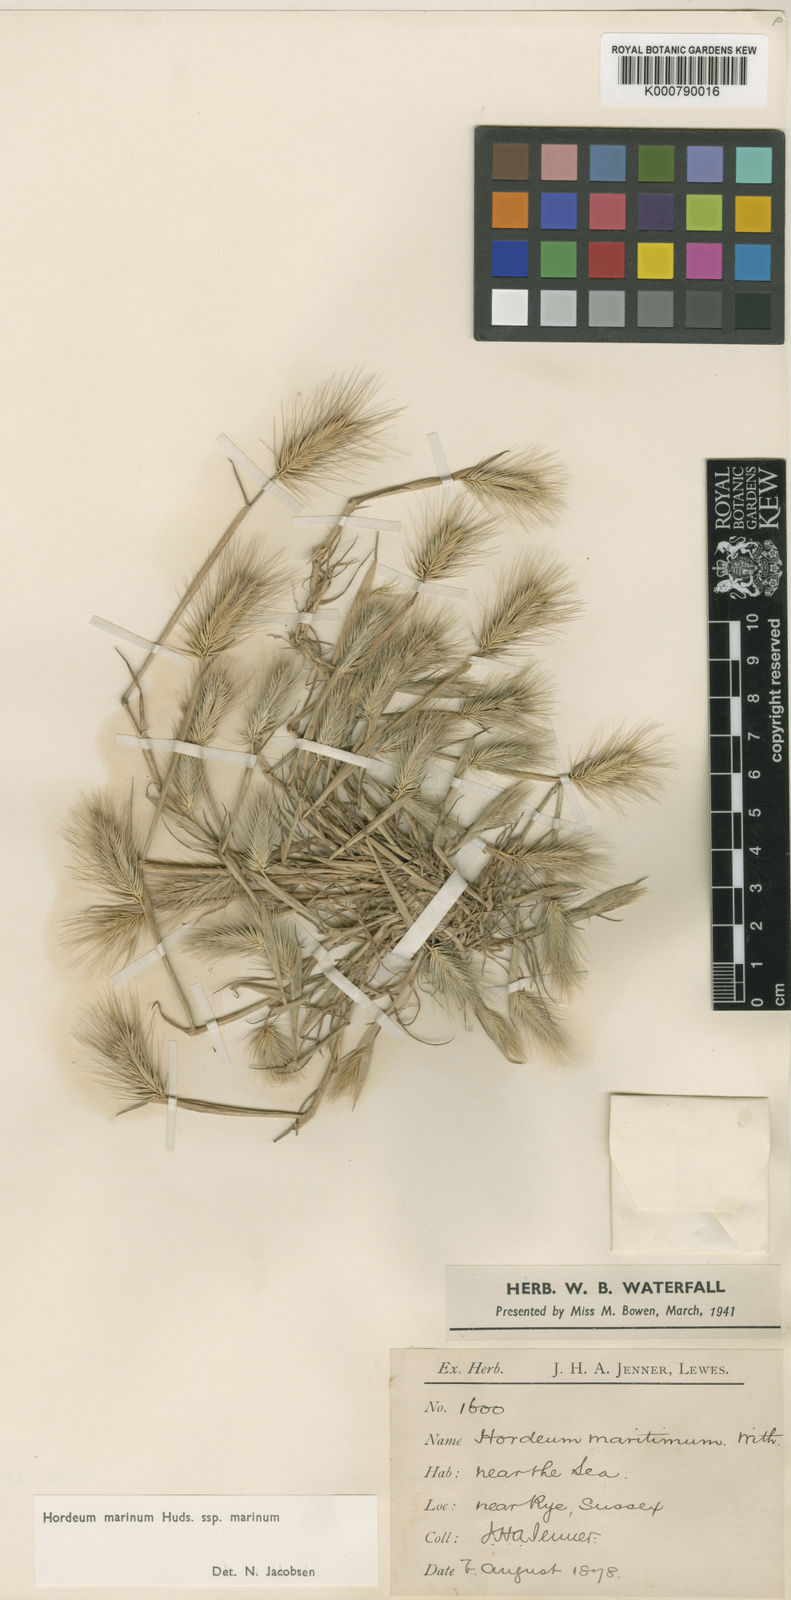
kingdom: Plantae
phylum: Tracheophyta
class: Liliopsida
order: Poales
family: Poaceae
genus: Hordeum
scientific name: Hordeum marinum
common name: Sea barley
